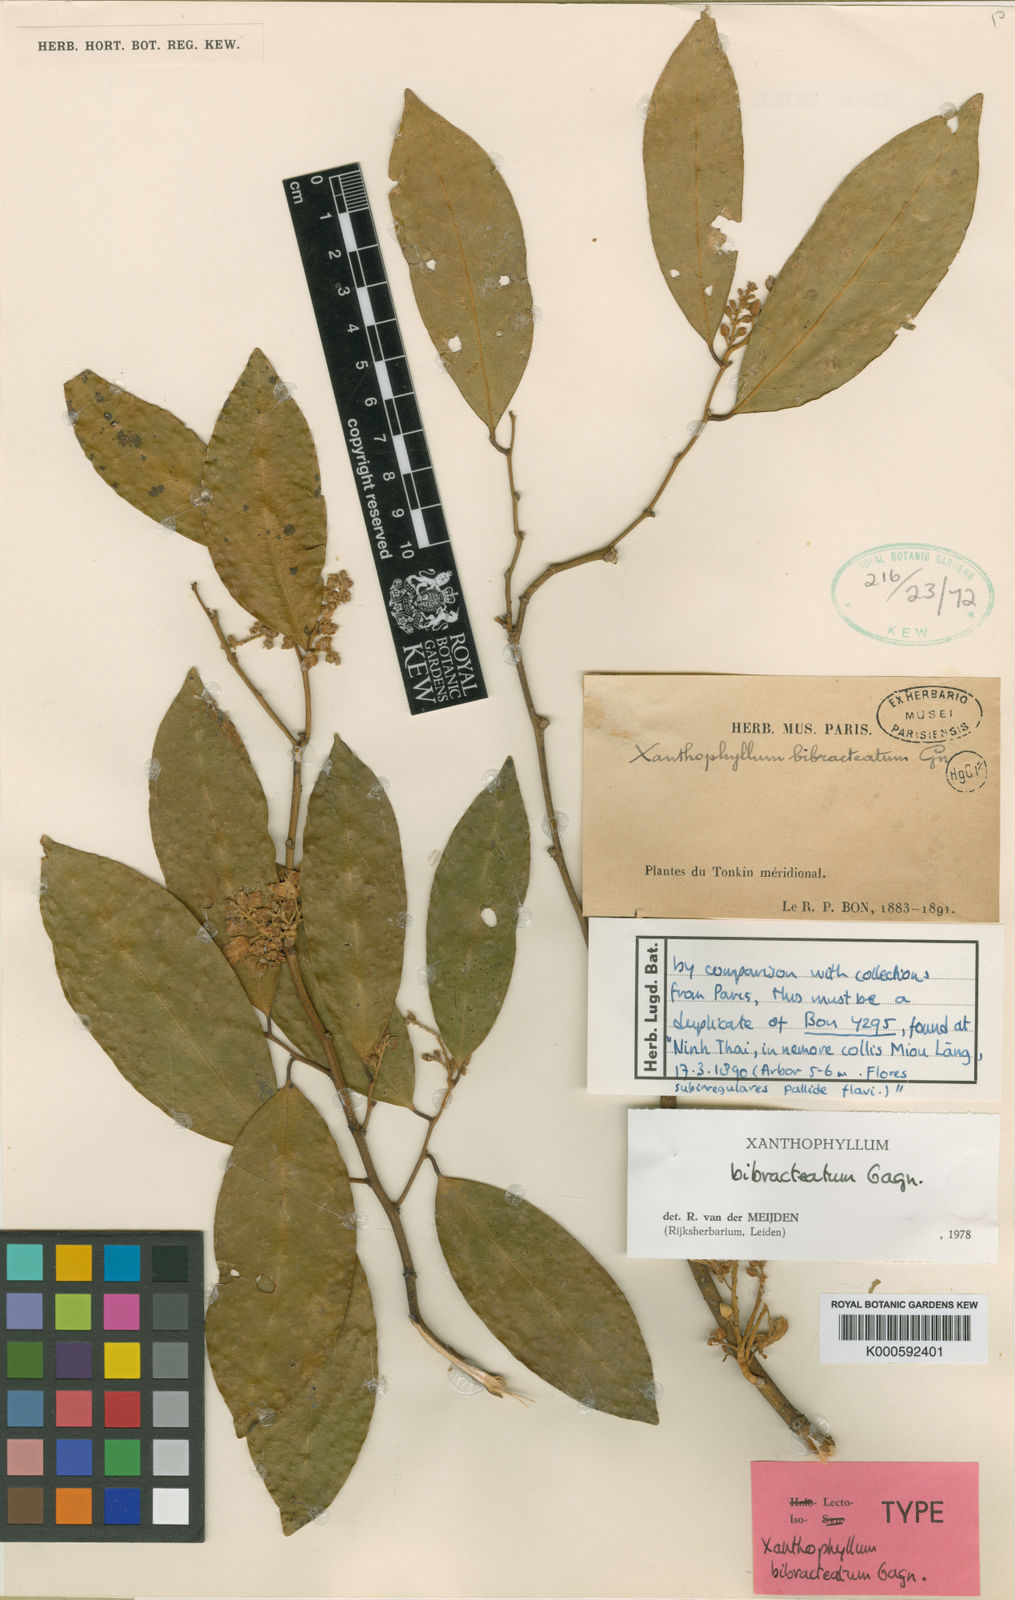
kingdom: Plantae
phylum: Tracheophyta
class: Magnoliopsida
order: Fabales
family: Polygalaceae
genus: Xanthophyllum
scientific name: Xanthophyllum bibracteatum
